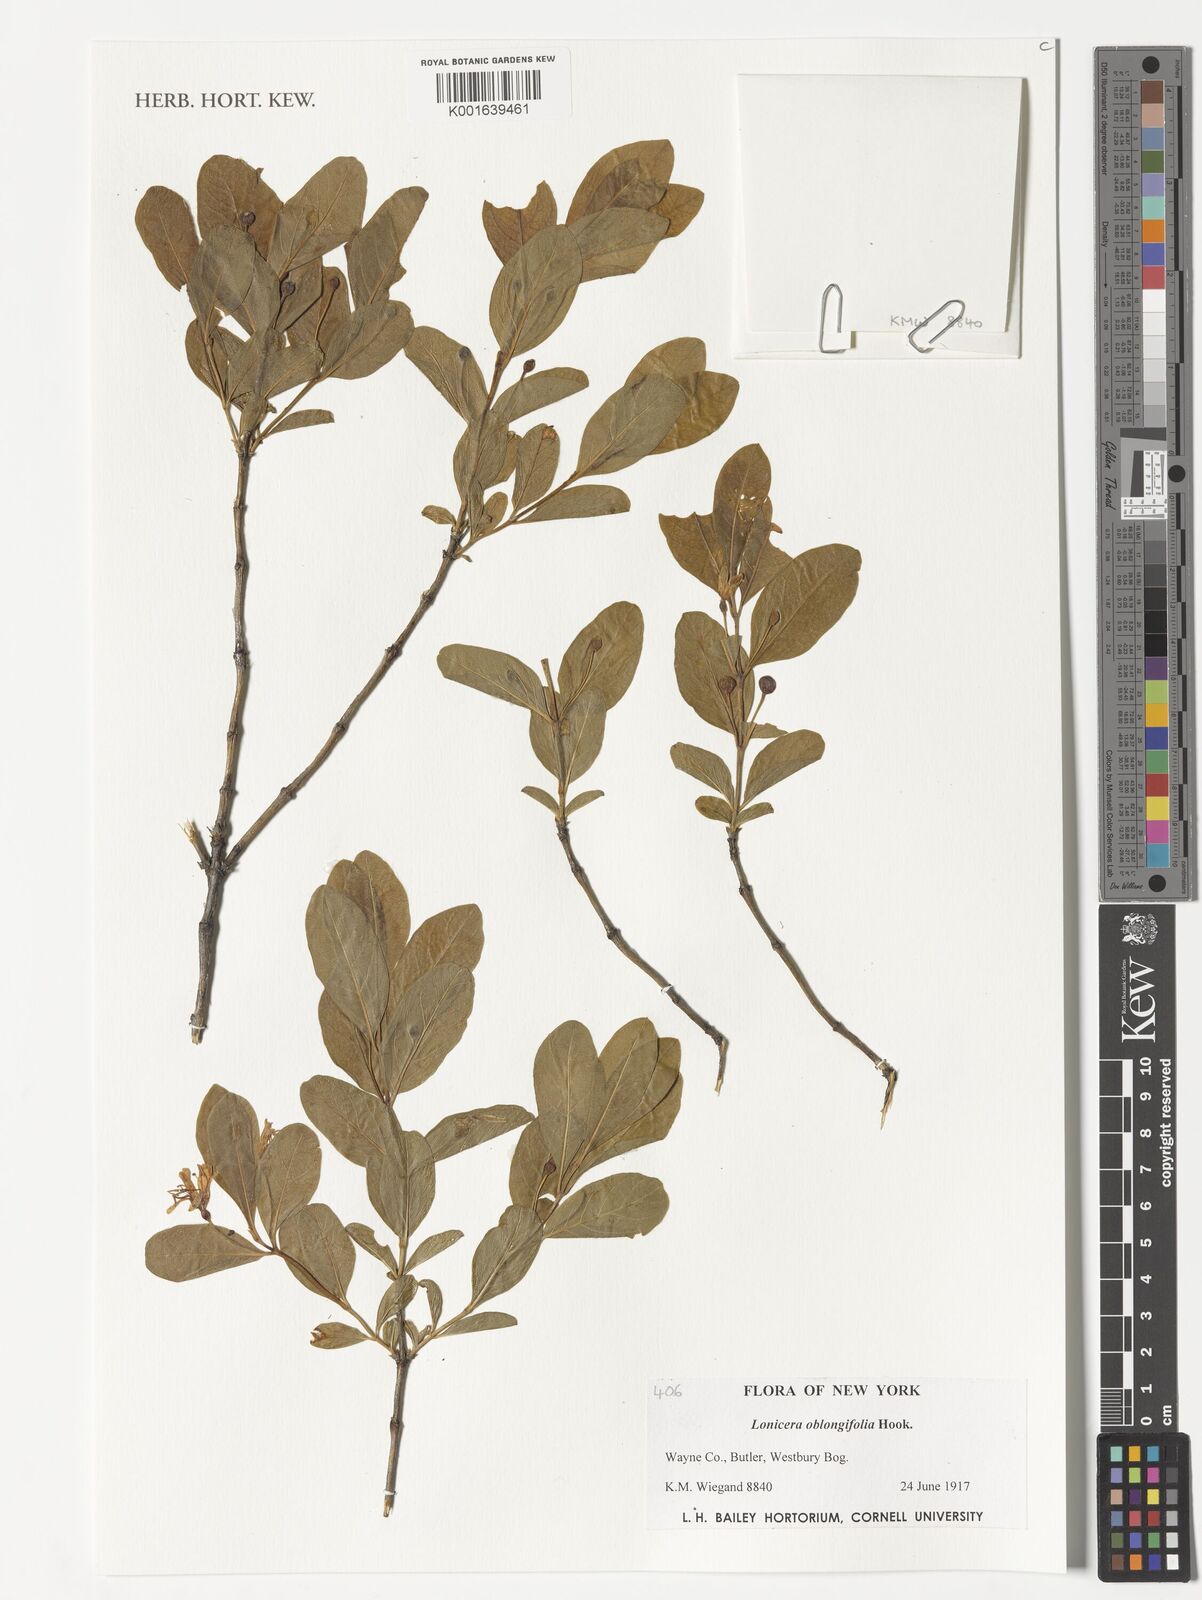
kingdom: Plantae
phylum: Tracheophyta
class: Magnoliopsida
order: Dipsacales
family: Caprifoliaceae
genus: Lonicera
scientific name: Lonicera oblongifolia
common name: Swamp fly honeysuckle
